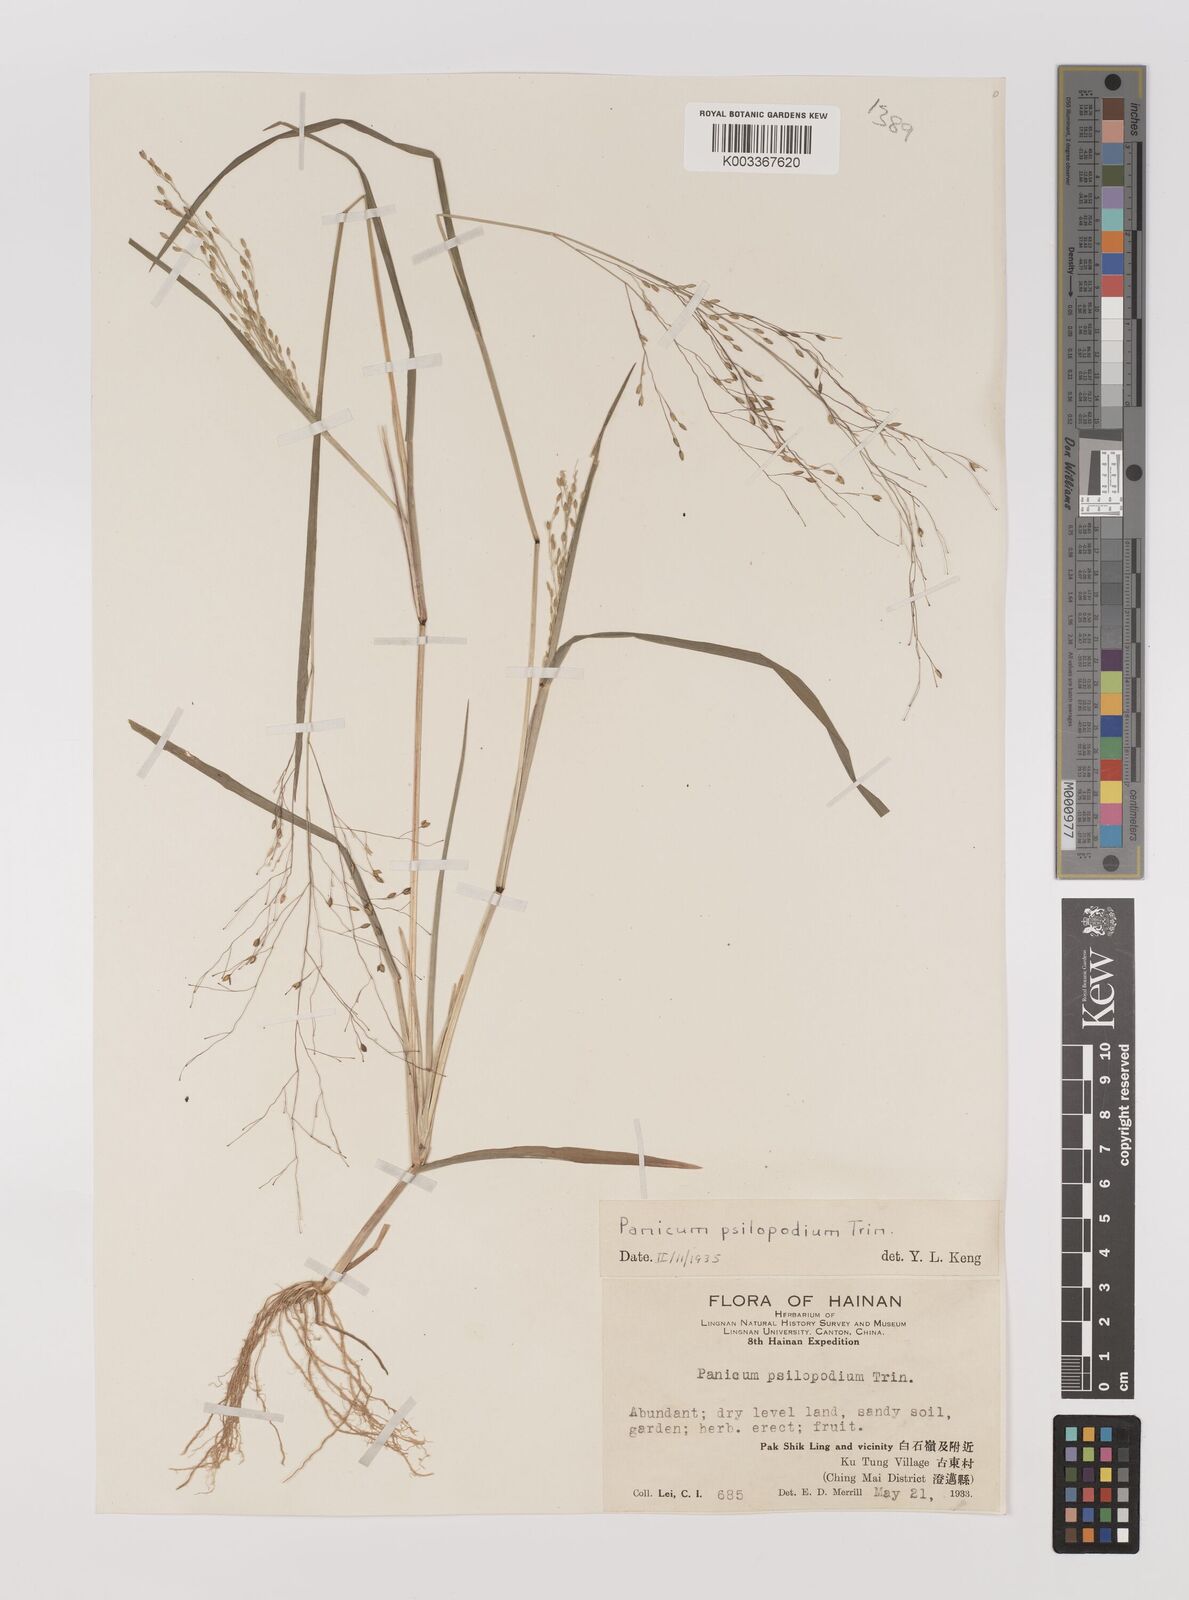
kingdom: Plantae
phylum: Tracheophyta
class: Liliopsida
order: Poales
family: Poaceae
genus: Panicum
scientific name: Panicum sumatrense
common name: Little millet
